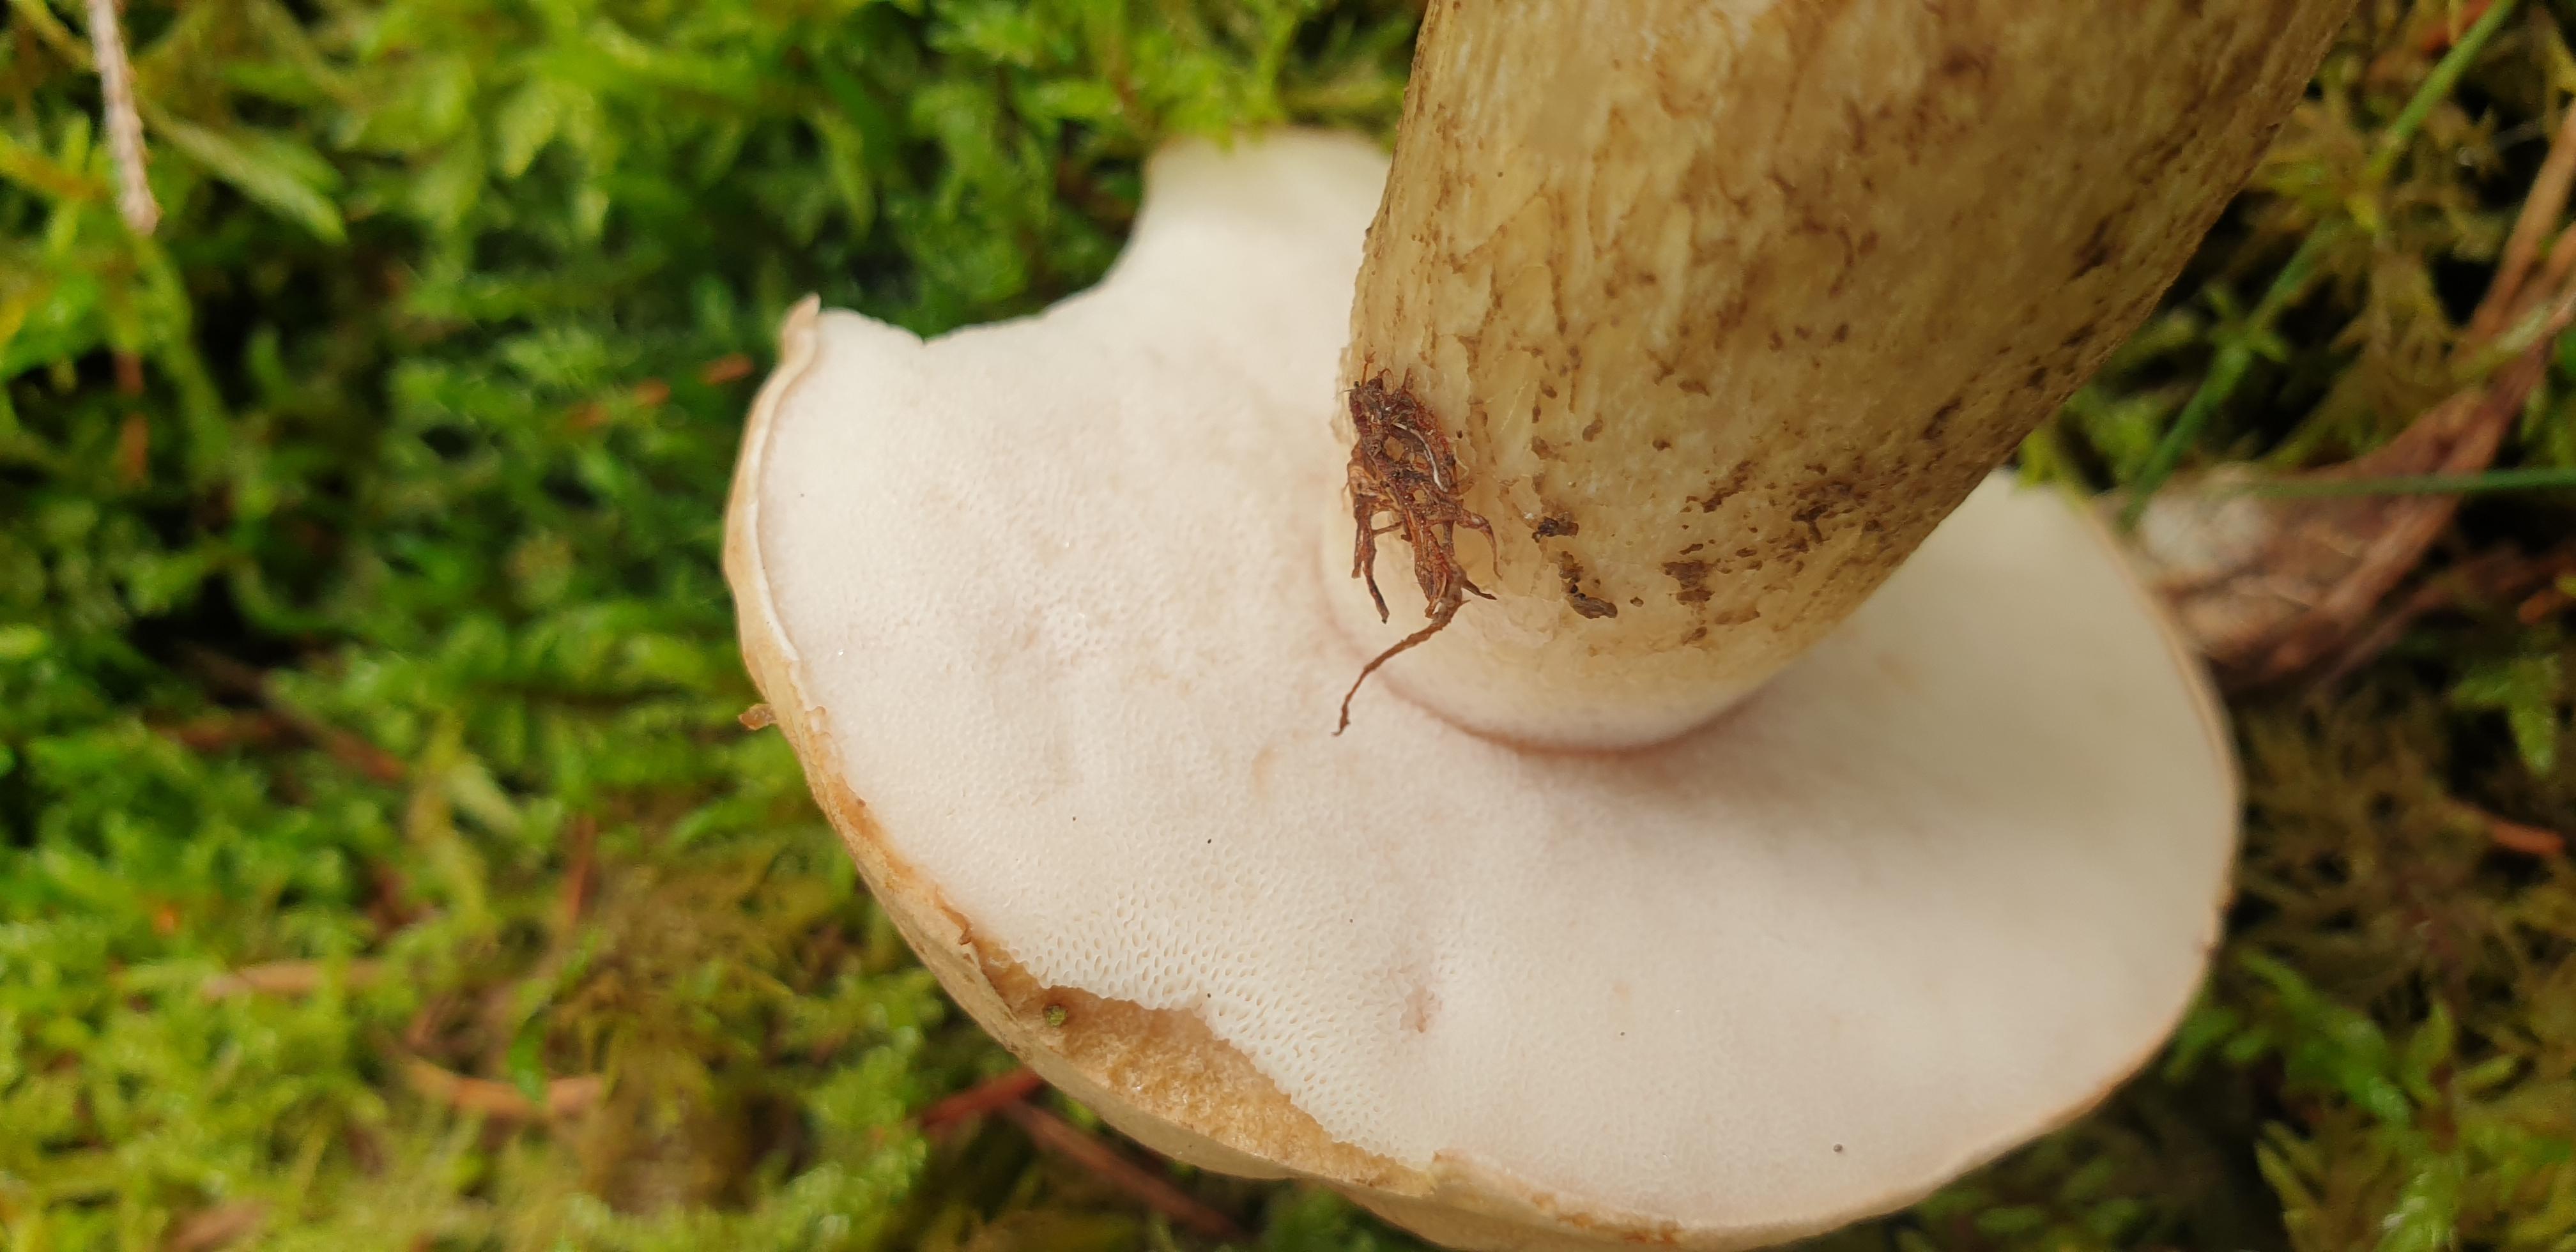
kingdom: Fungi
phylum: Basidiomycota
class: Agaricomycetes
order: Boletales
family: Boletaceae
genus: Tylopilus
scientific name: Tylopilus felleus
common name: galderørhat
